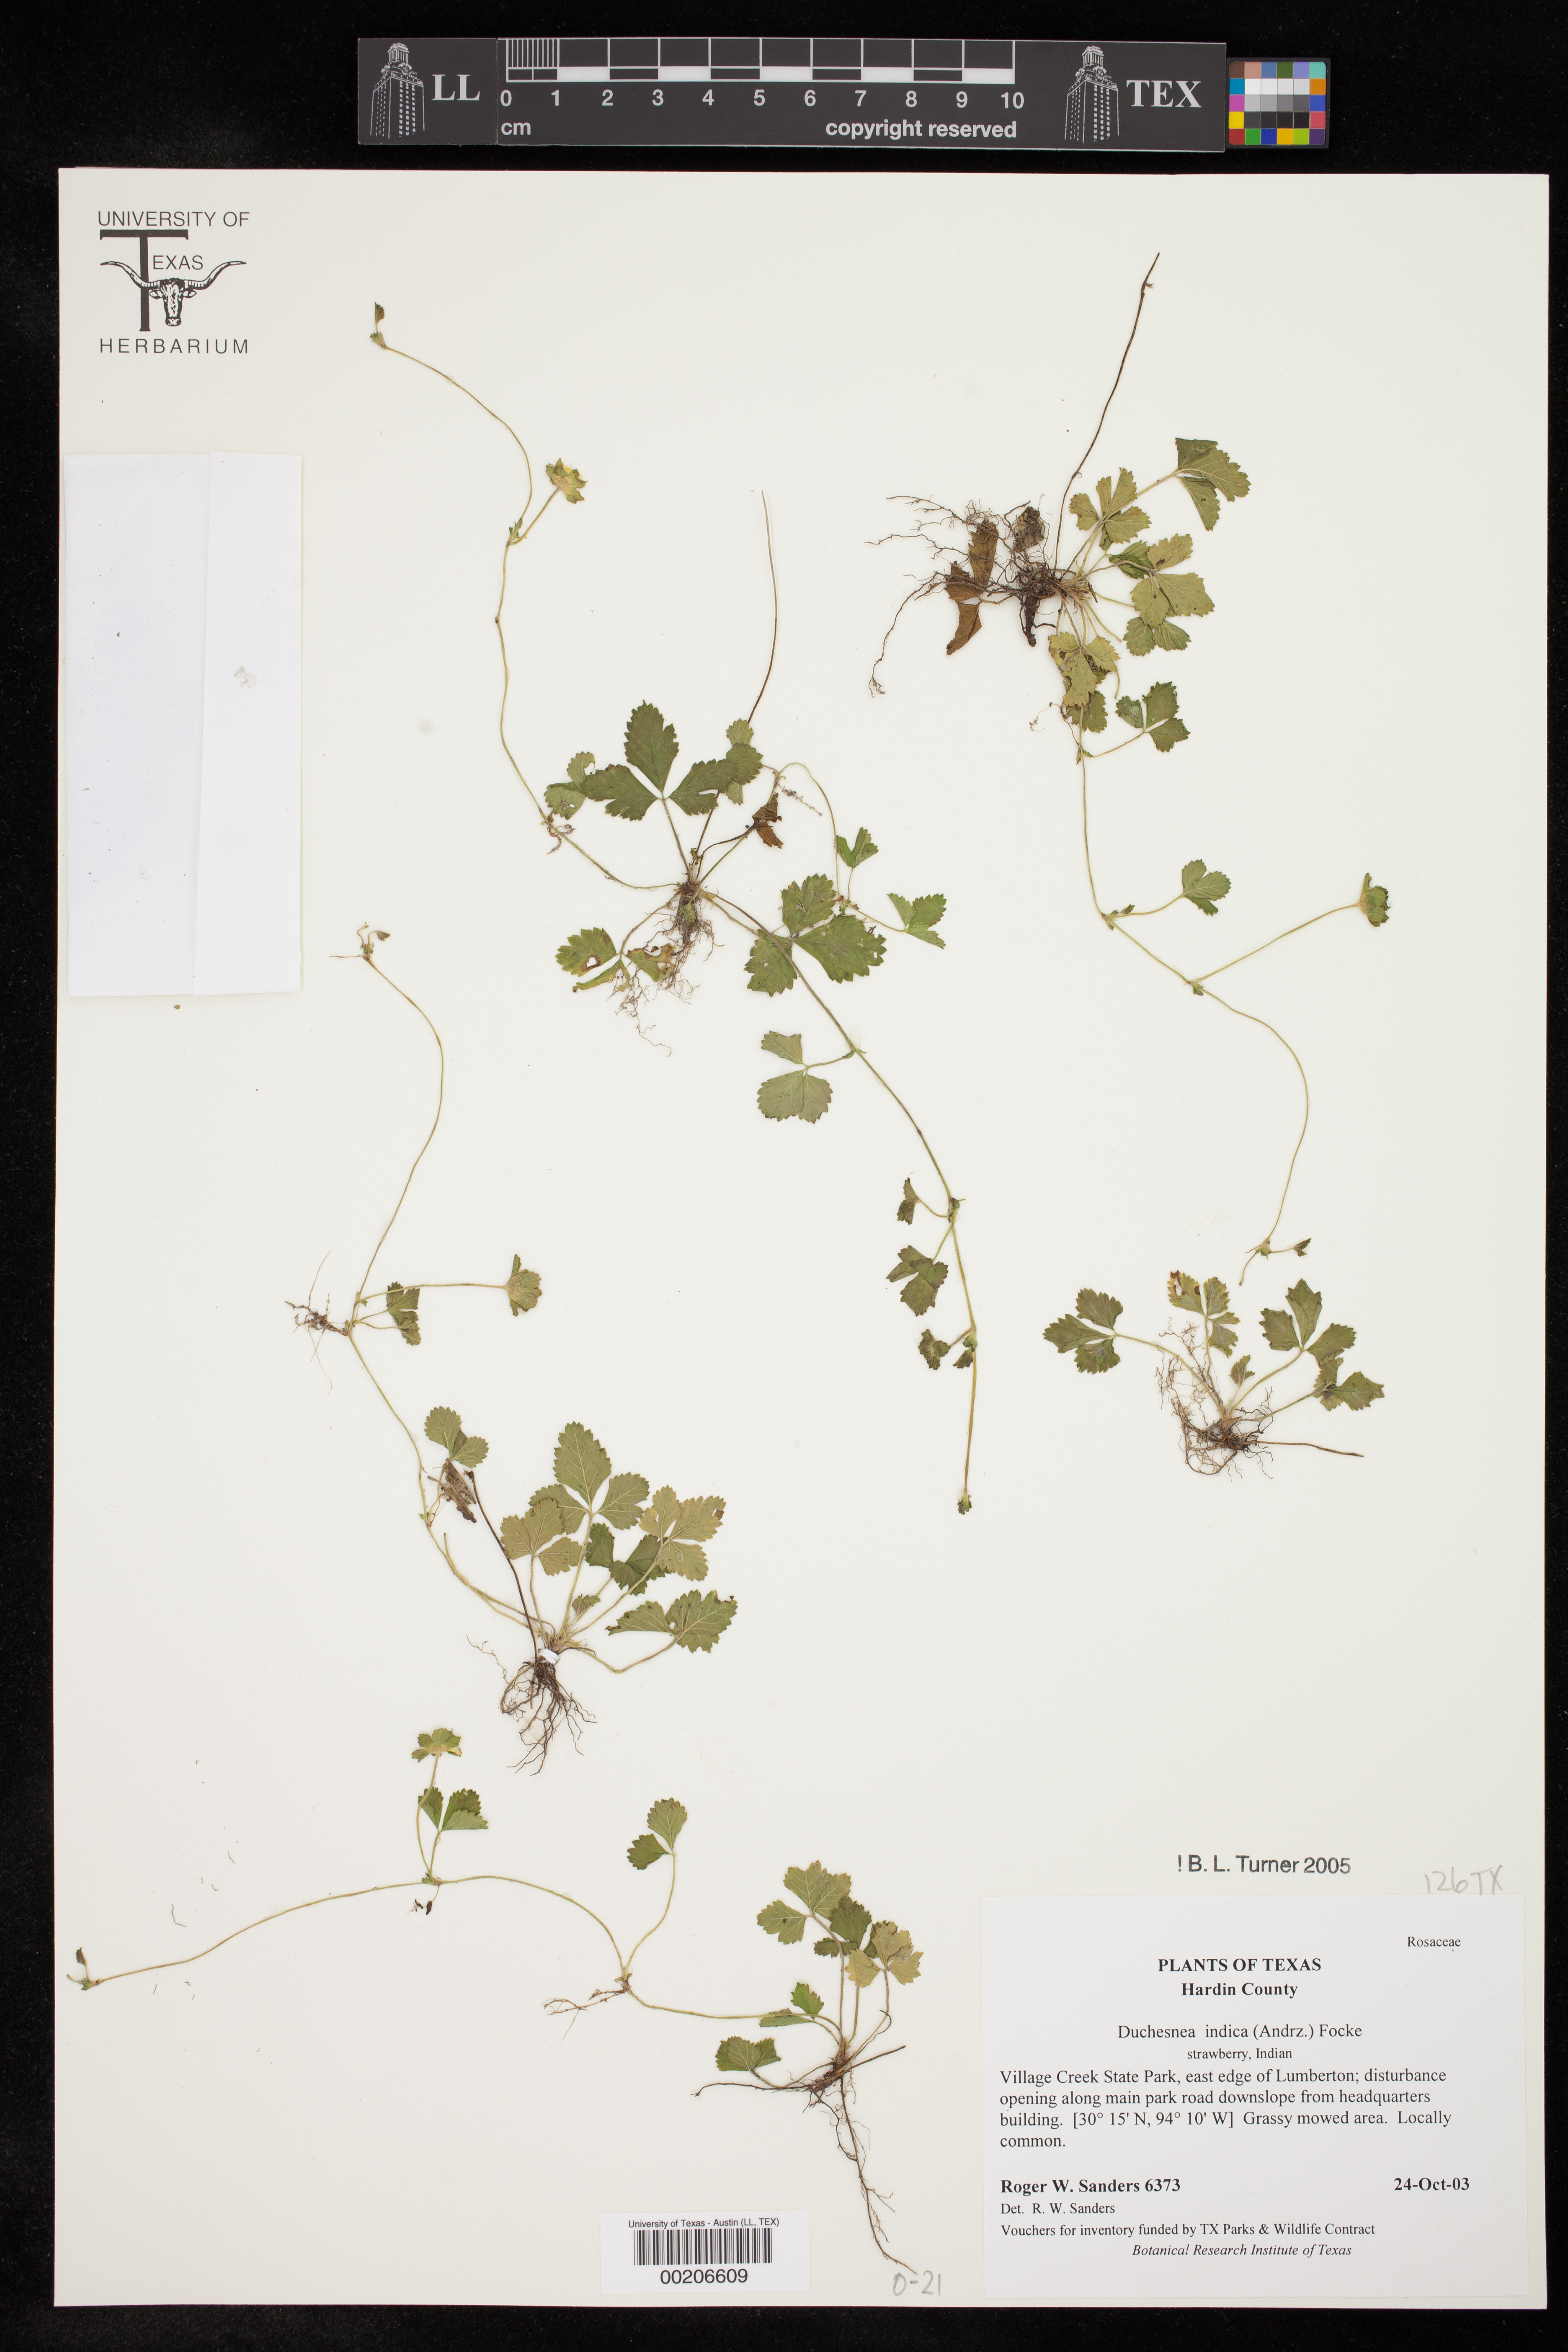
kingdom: Plantae
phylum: Tracheophyta
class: Magnoliopsida
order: Rosales
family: Rosaceae
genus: Potentilla
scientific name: Potentilla indica
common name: Yellow-flowered strawberry
